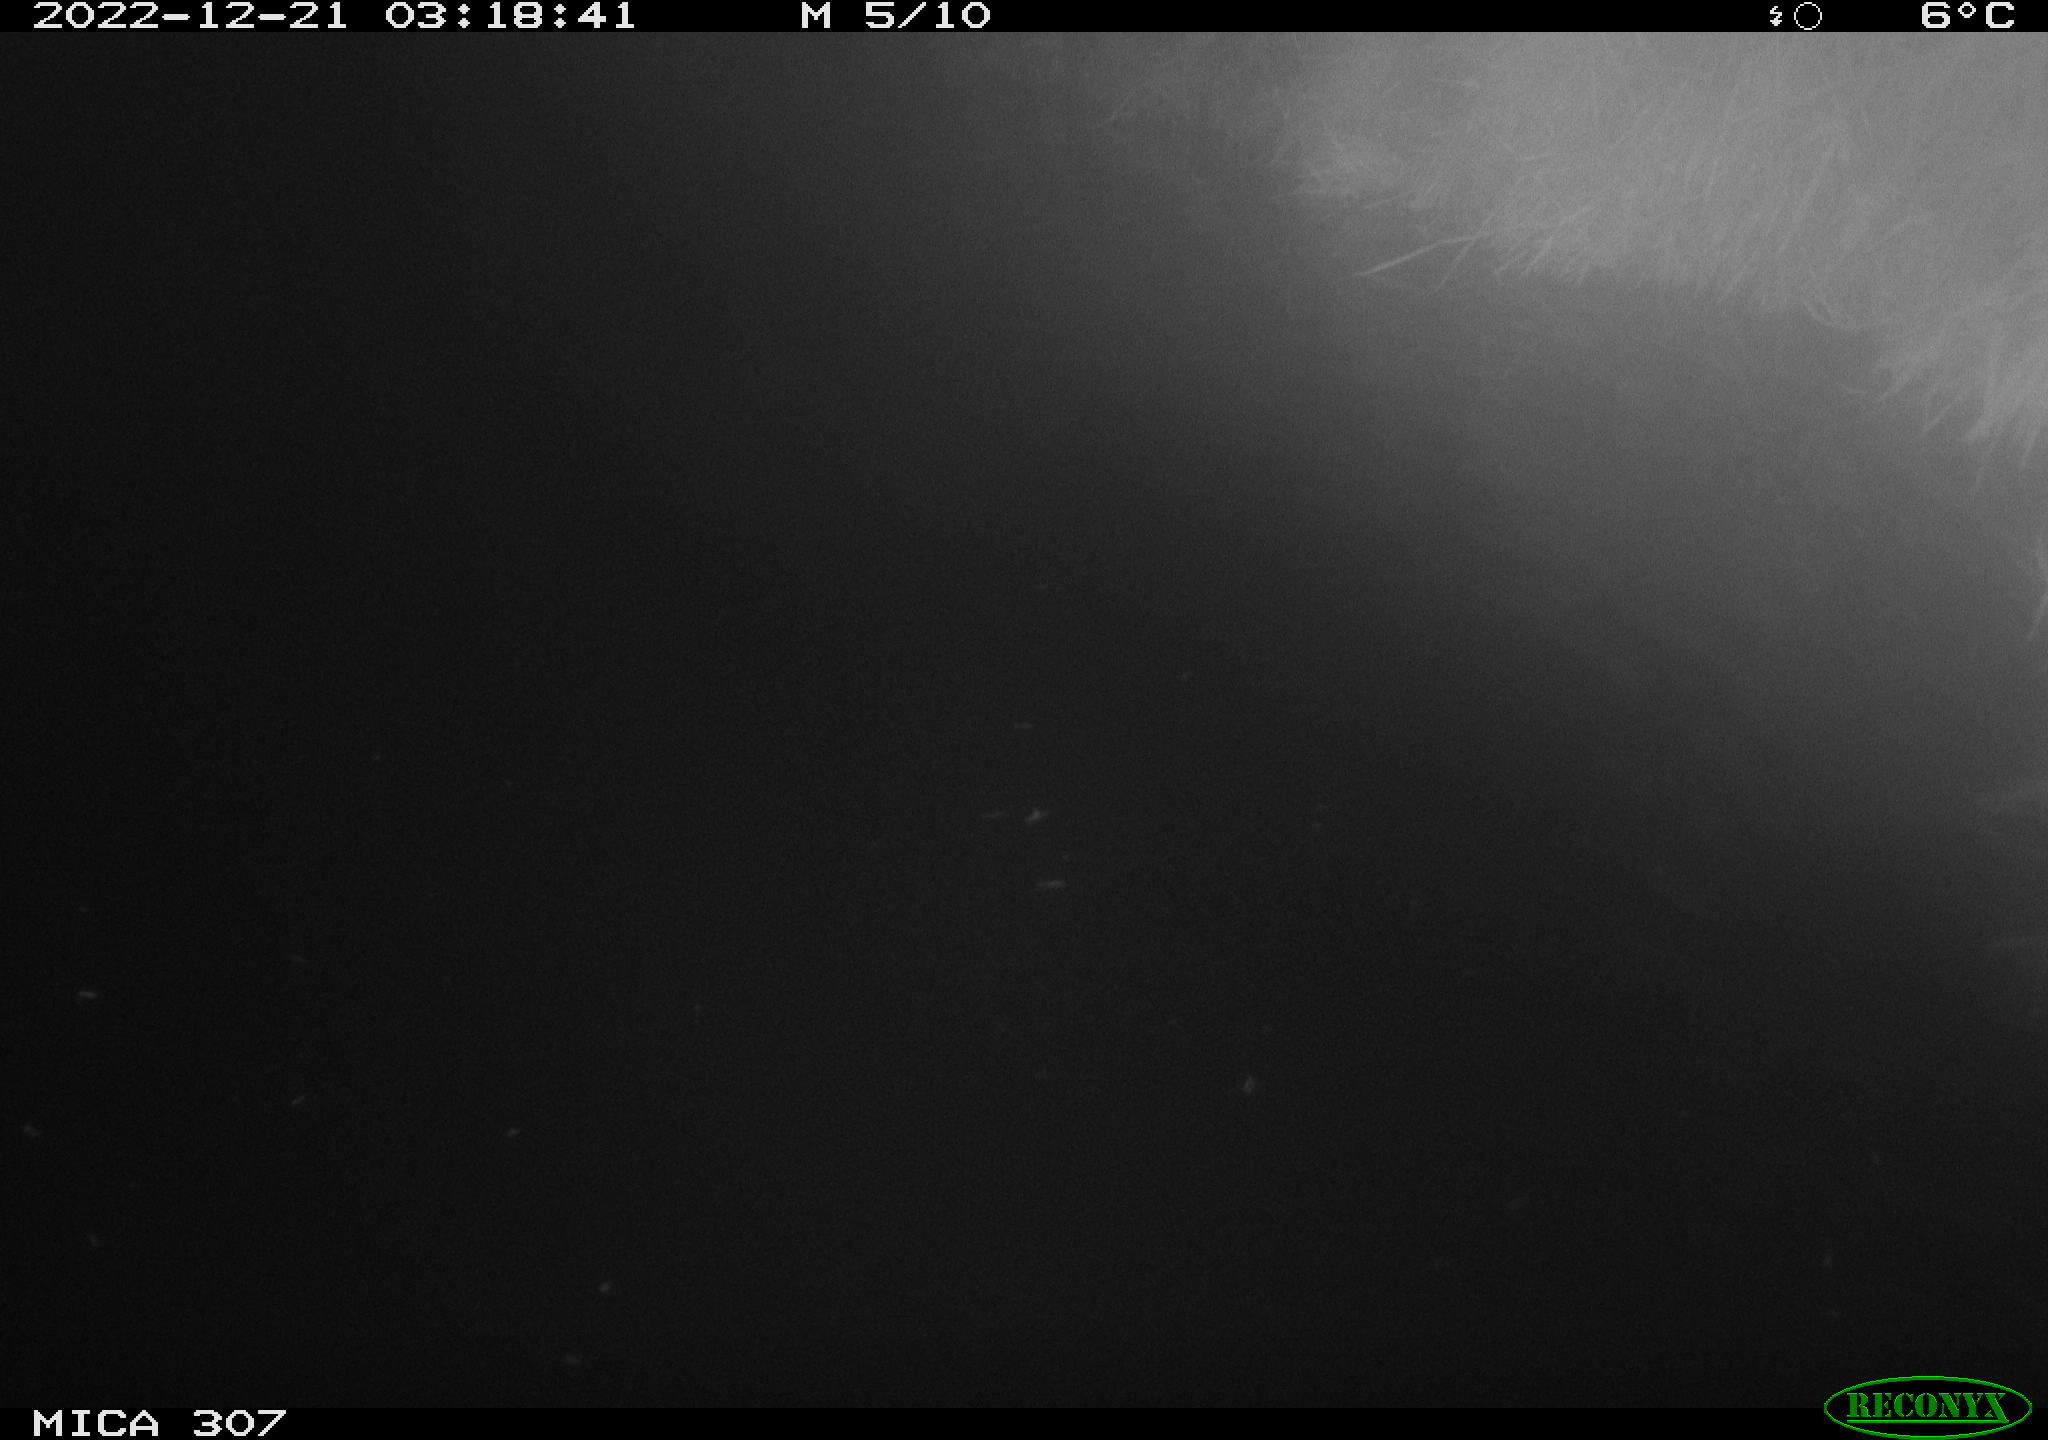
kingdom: Animalia
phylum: Chordata
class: Mammalia
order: Rodentia
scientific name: Rodentia
